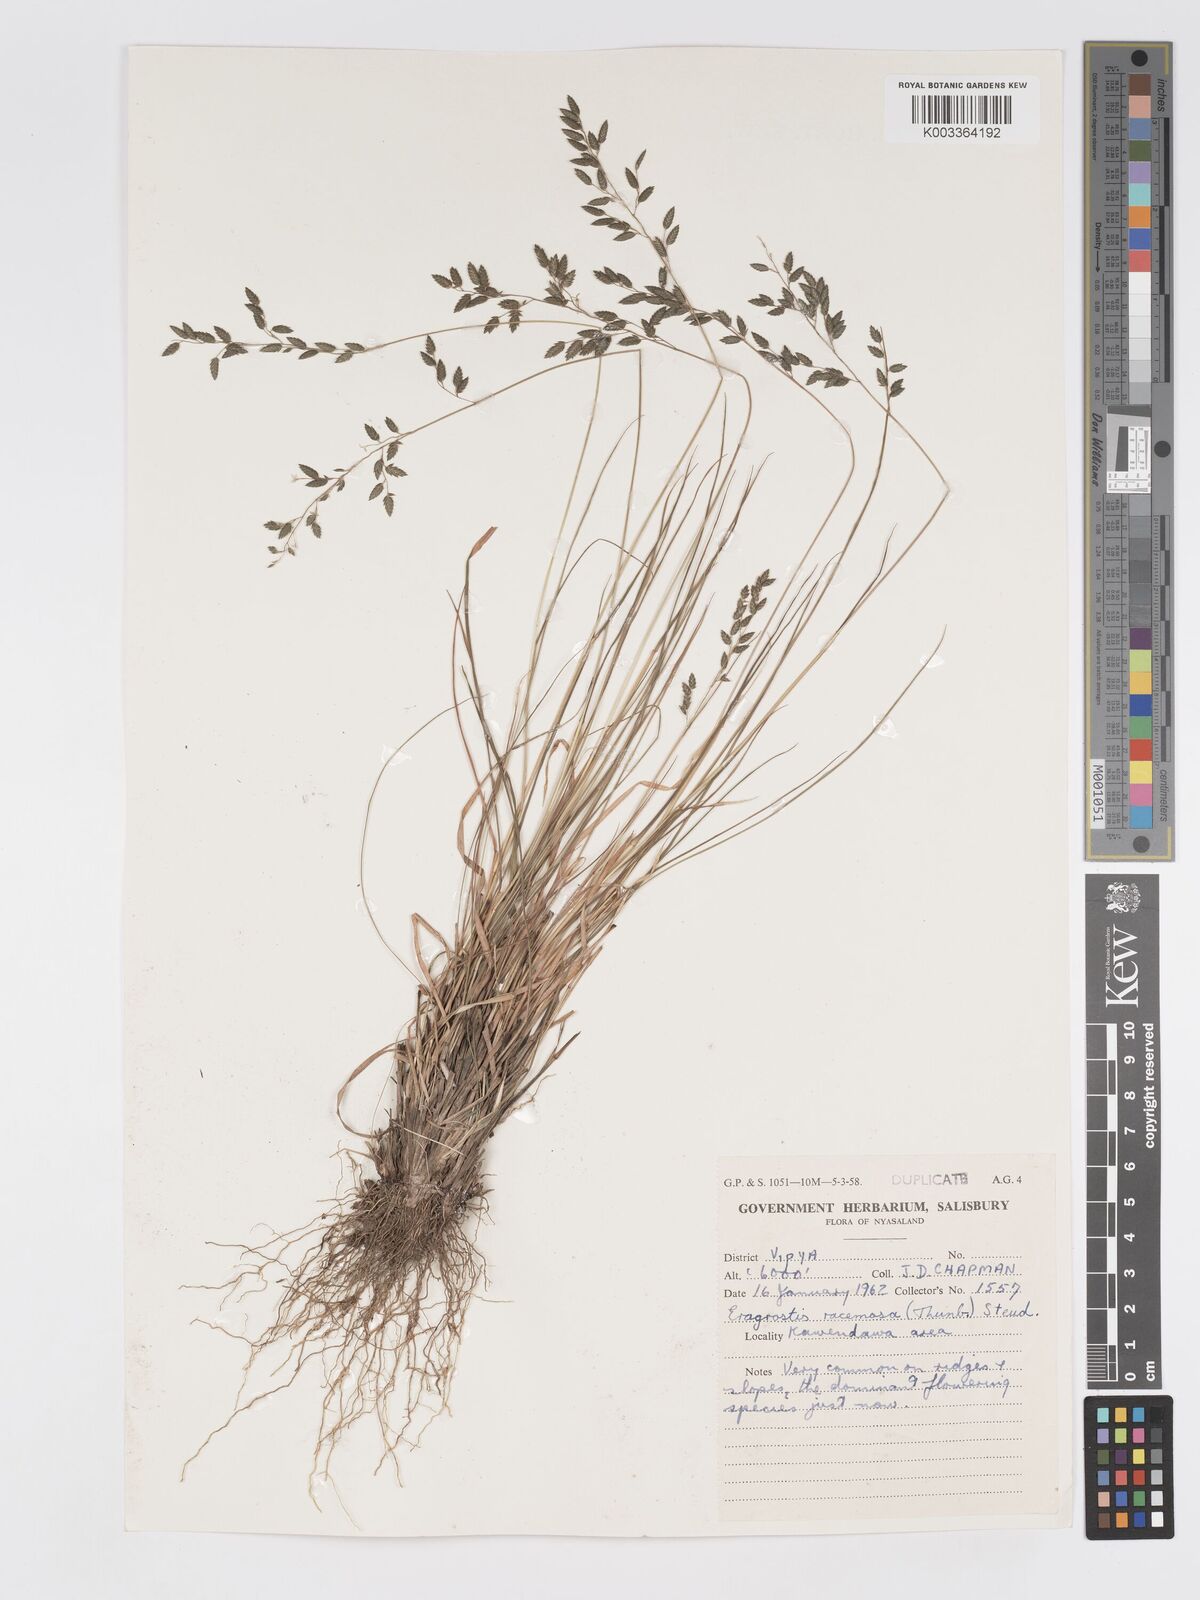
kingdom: Plantae
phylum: Tracheophyta
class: Liliopsida
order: Poales
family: Poaceae
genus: Eragrostis
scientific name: Eragrostis racemosa
